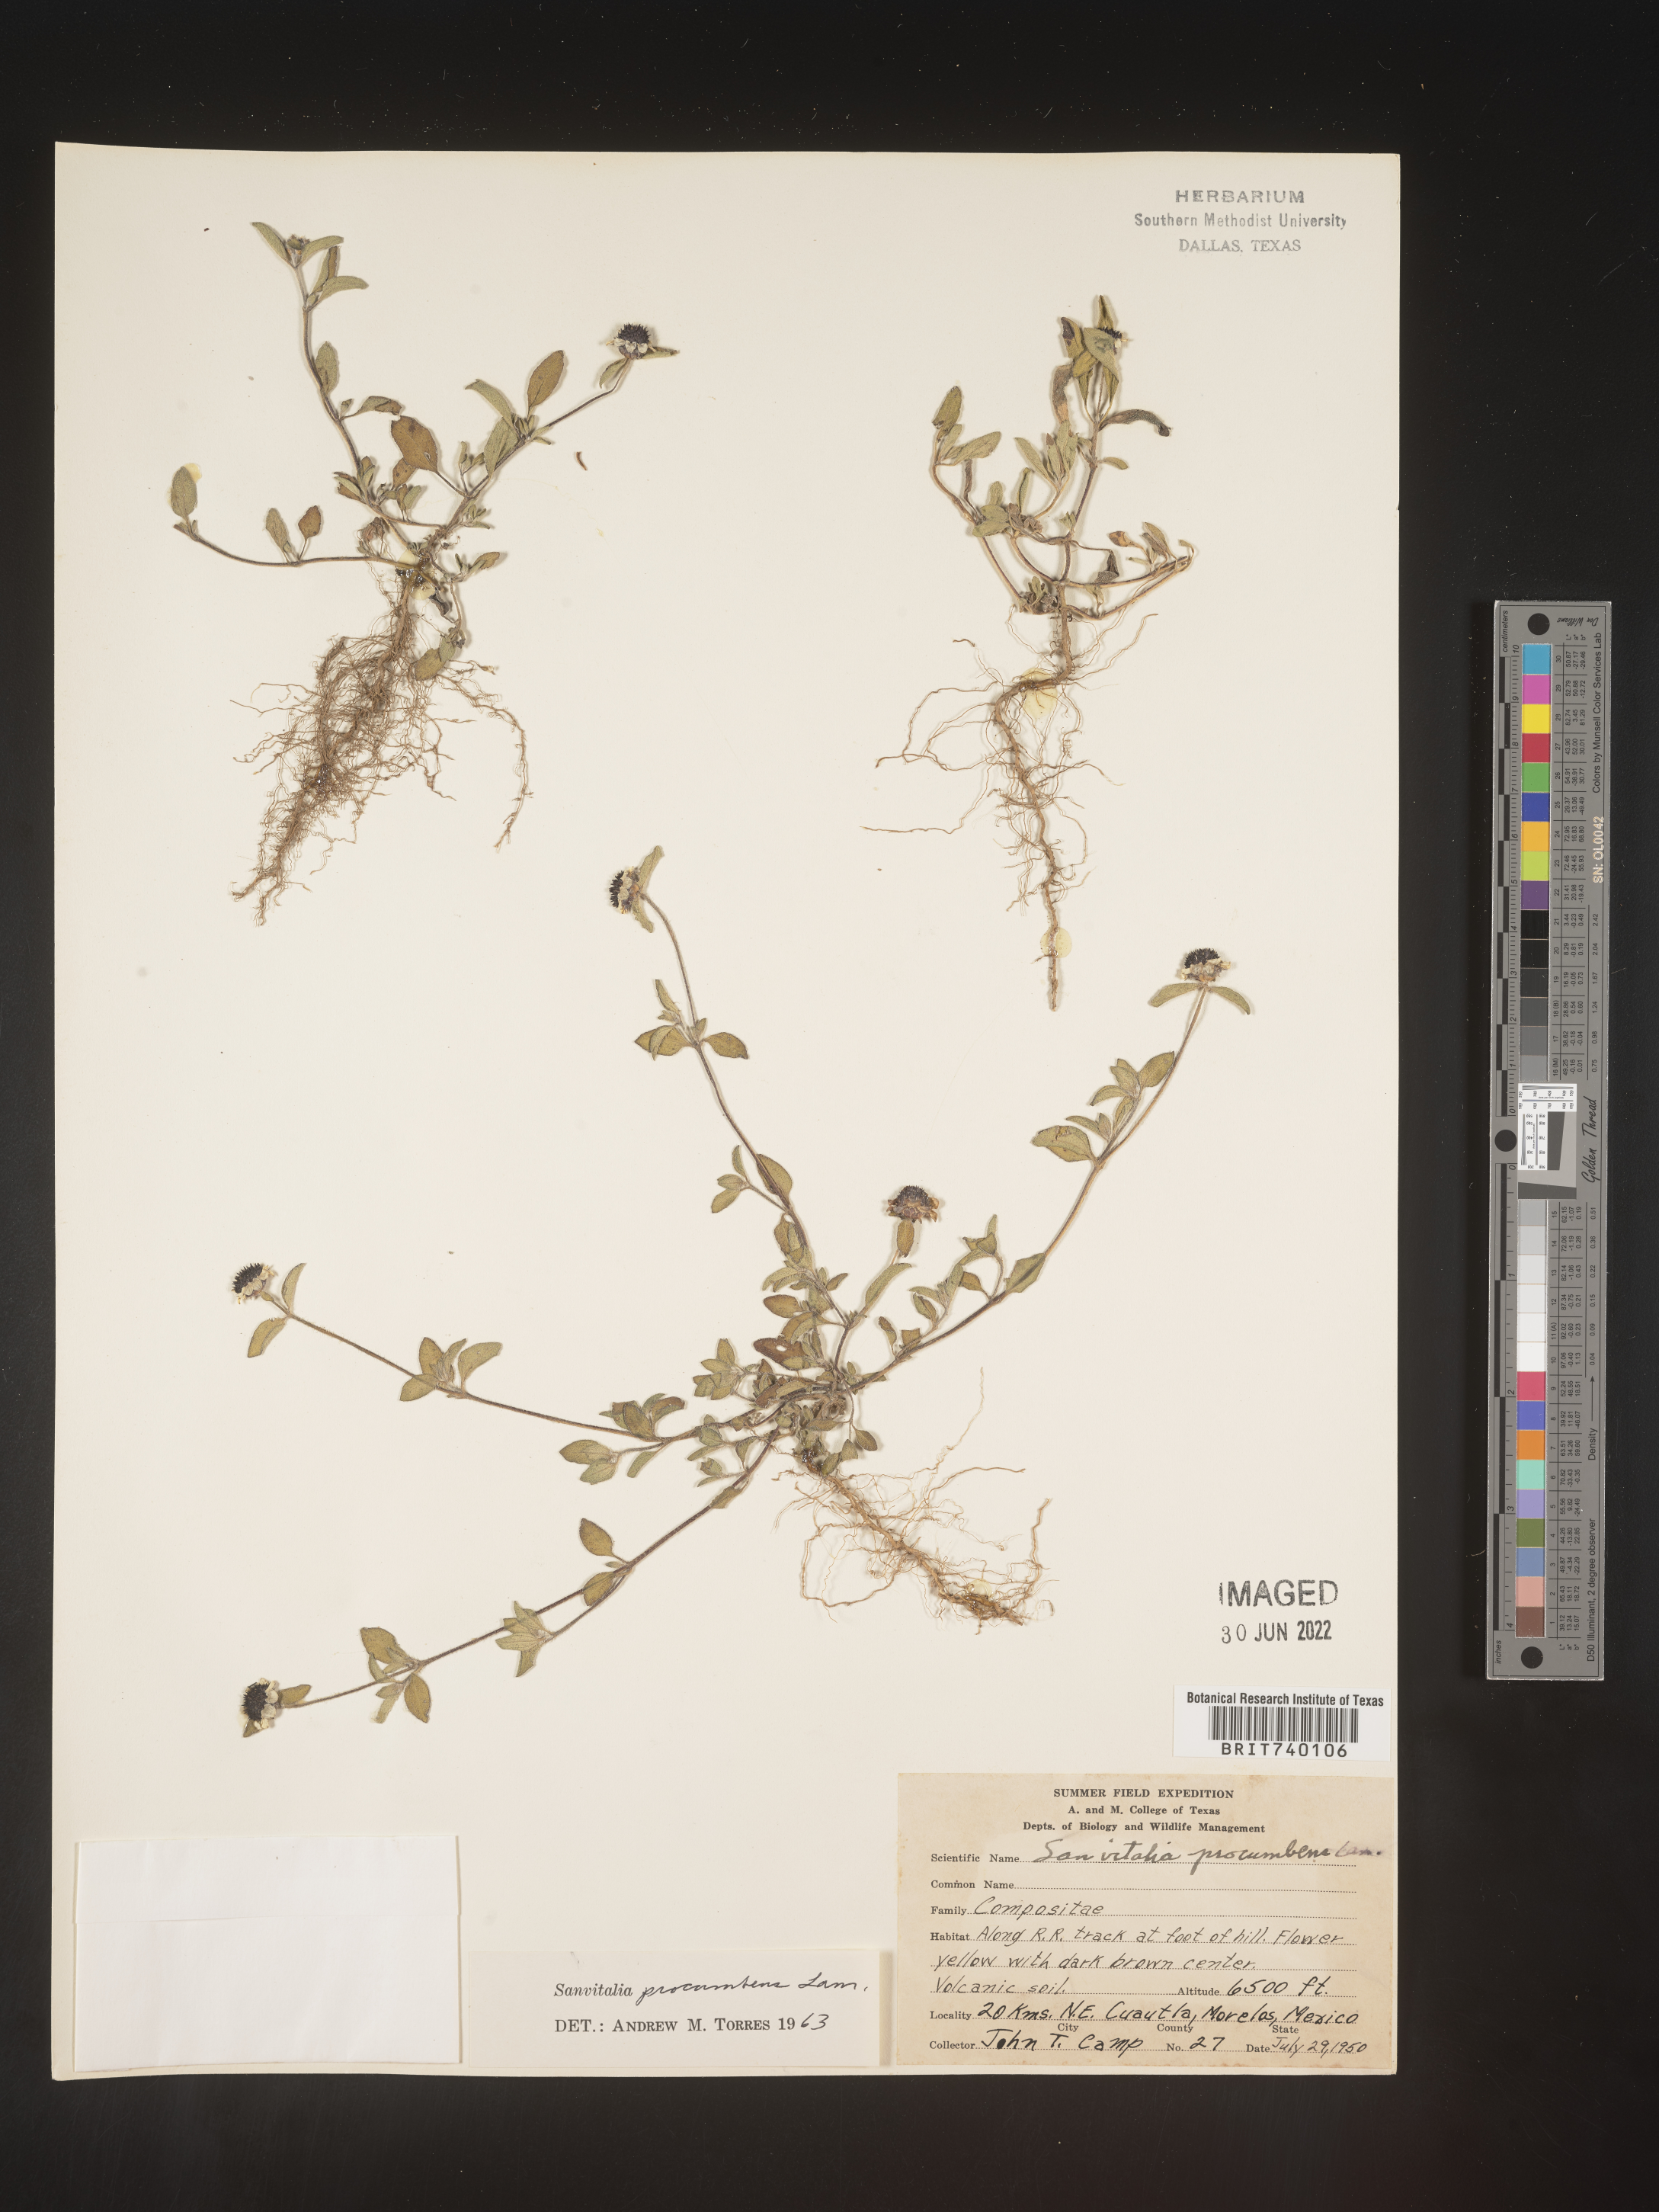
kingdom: Plantae
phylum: Tracheophyta
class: Magnoliopsida
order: Asterales
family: Asteraceae
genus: Sanvitalia
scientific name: Sanvitalia
